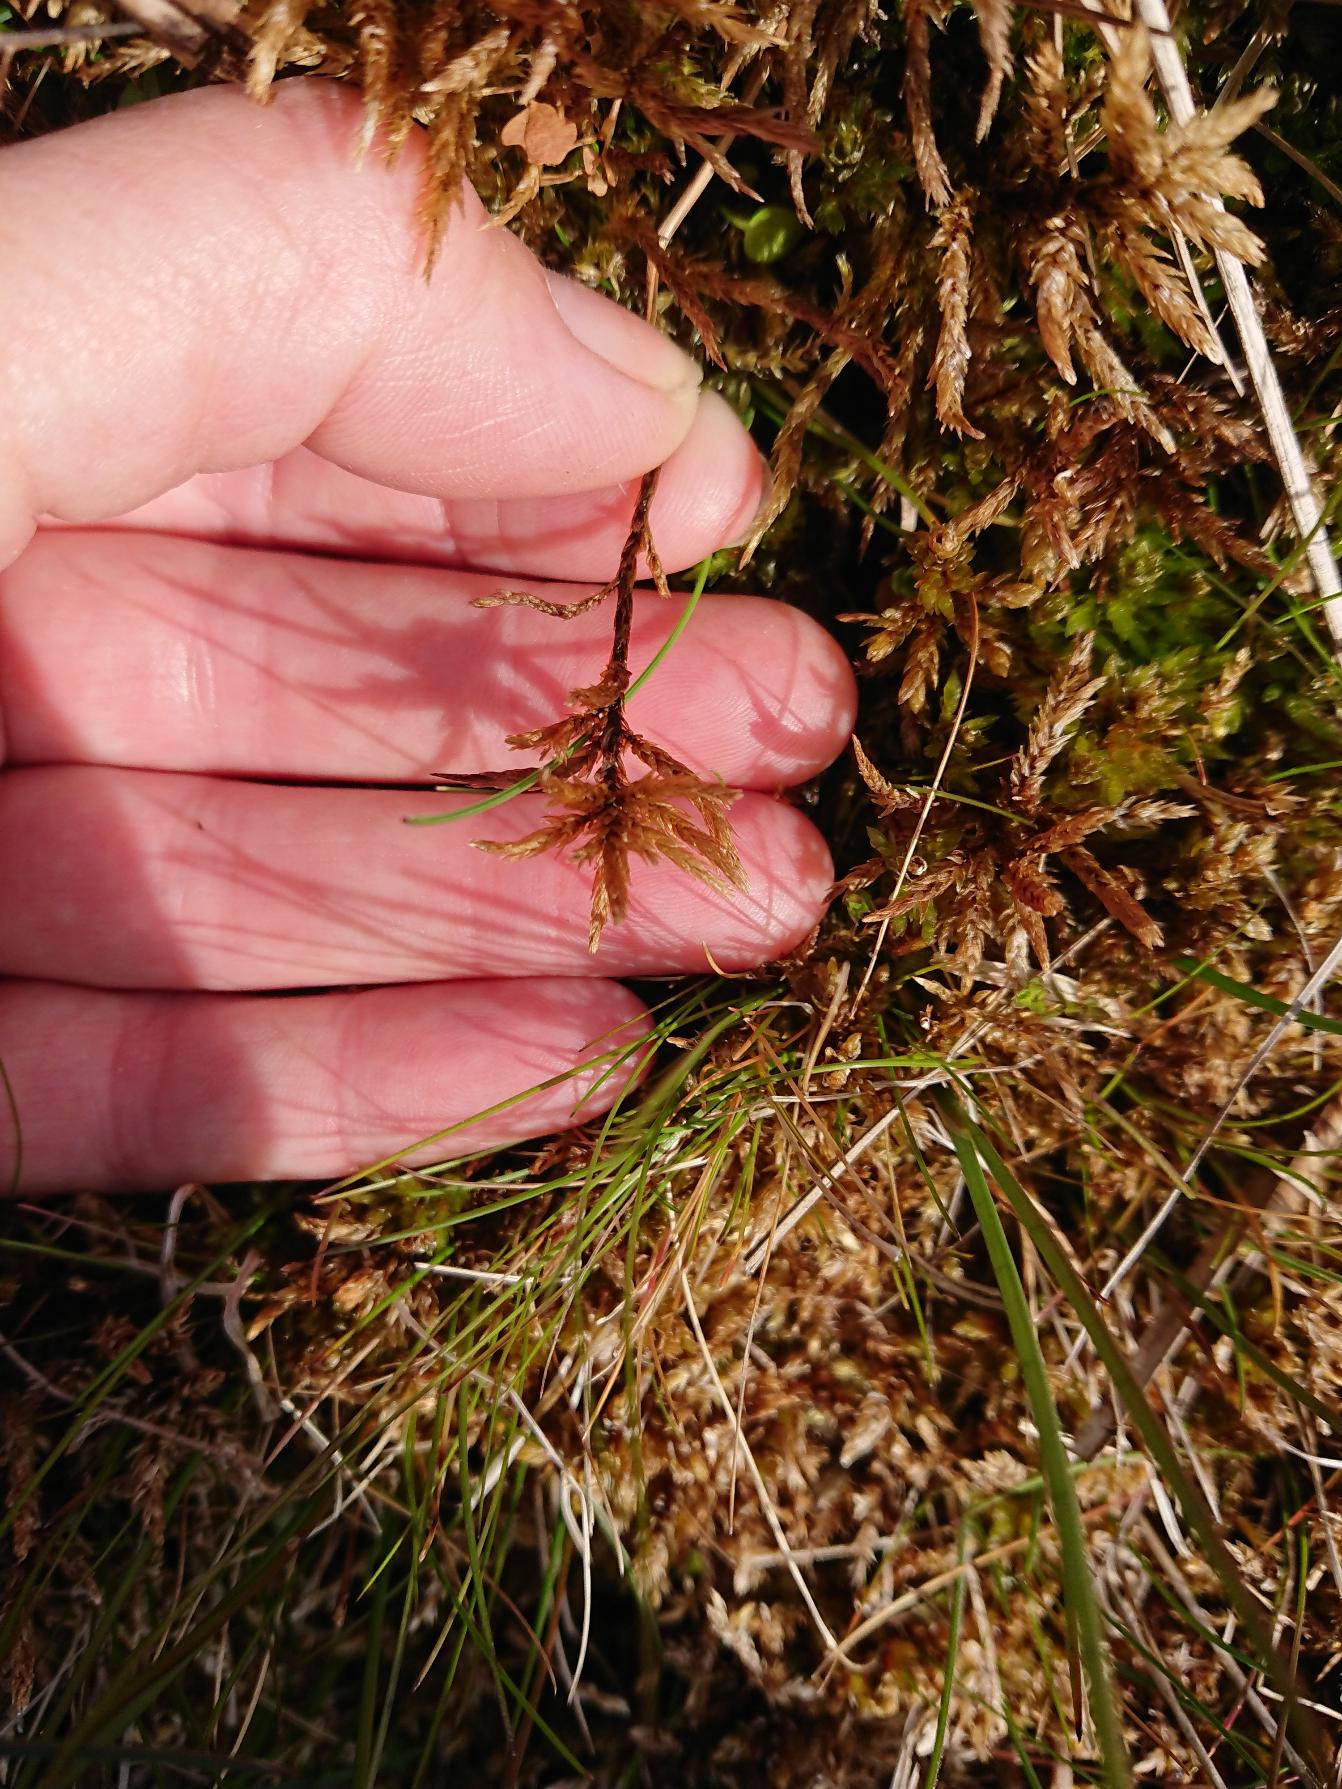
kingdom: Plantae
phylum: Bryophyta
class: Bryopsida
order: Hypnales
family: Climaciaceae
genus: Climacium
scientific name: Climacium dendroides
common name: Stor engkost
